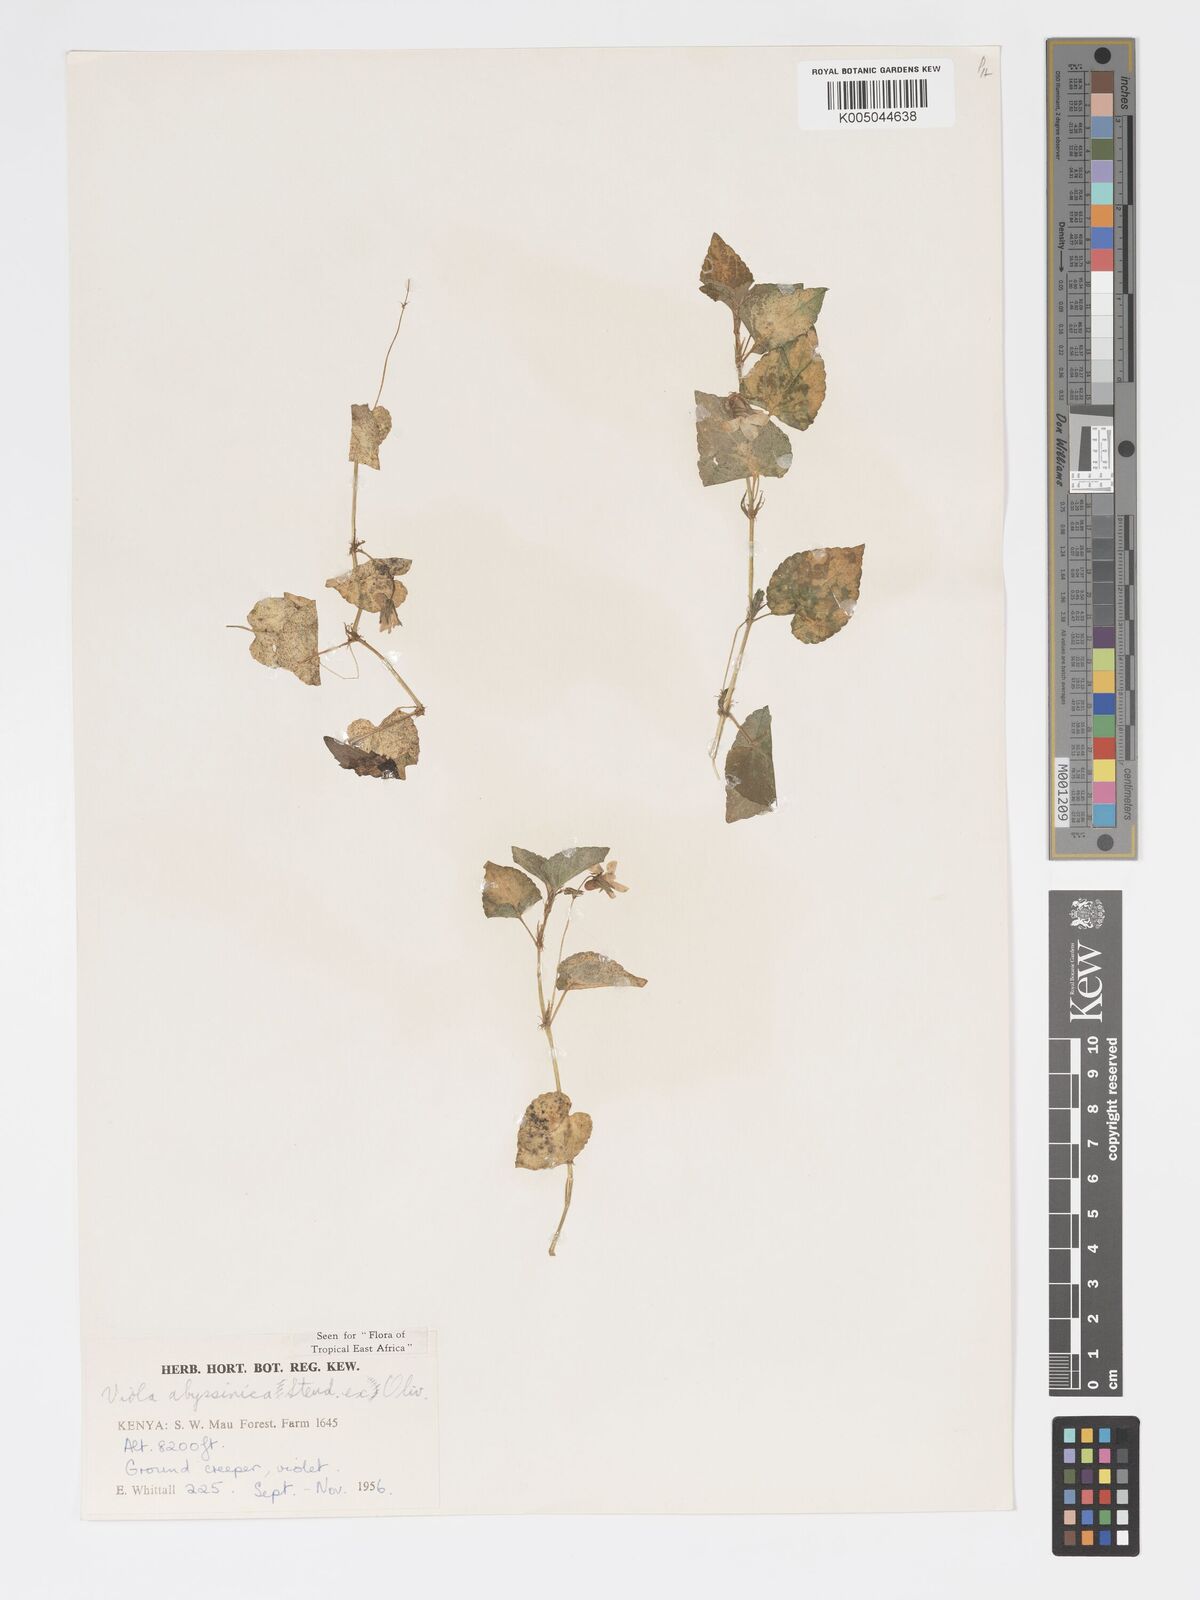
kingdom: Plantae
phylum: Tracheophyta
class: Magnoliopsida
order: Malpighiales
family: Violaceae
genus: Viola
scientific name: Viola abyssinica
